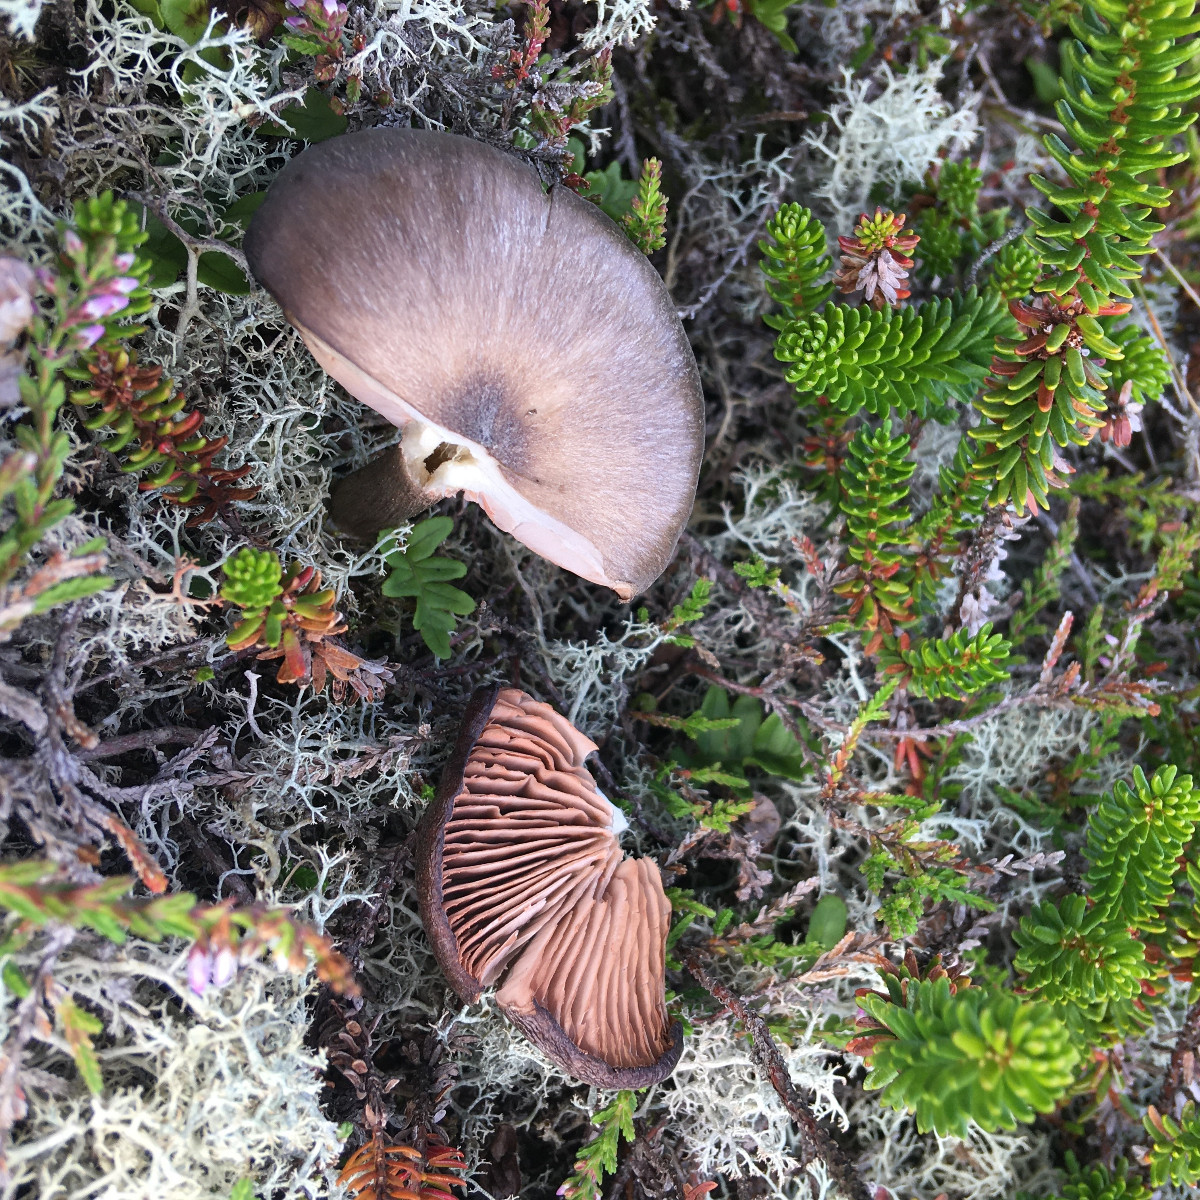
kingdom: Fungi
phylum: Basidiomycota
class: Agaricomycetes
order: Agaricales
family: Entolomataceae
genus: Entoloma
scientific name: Entoloma
